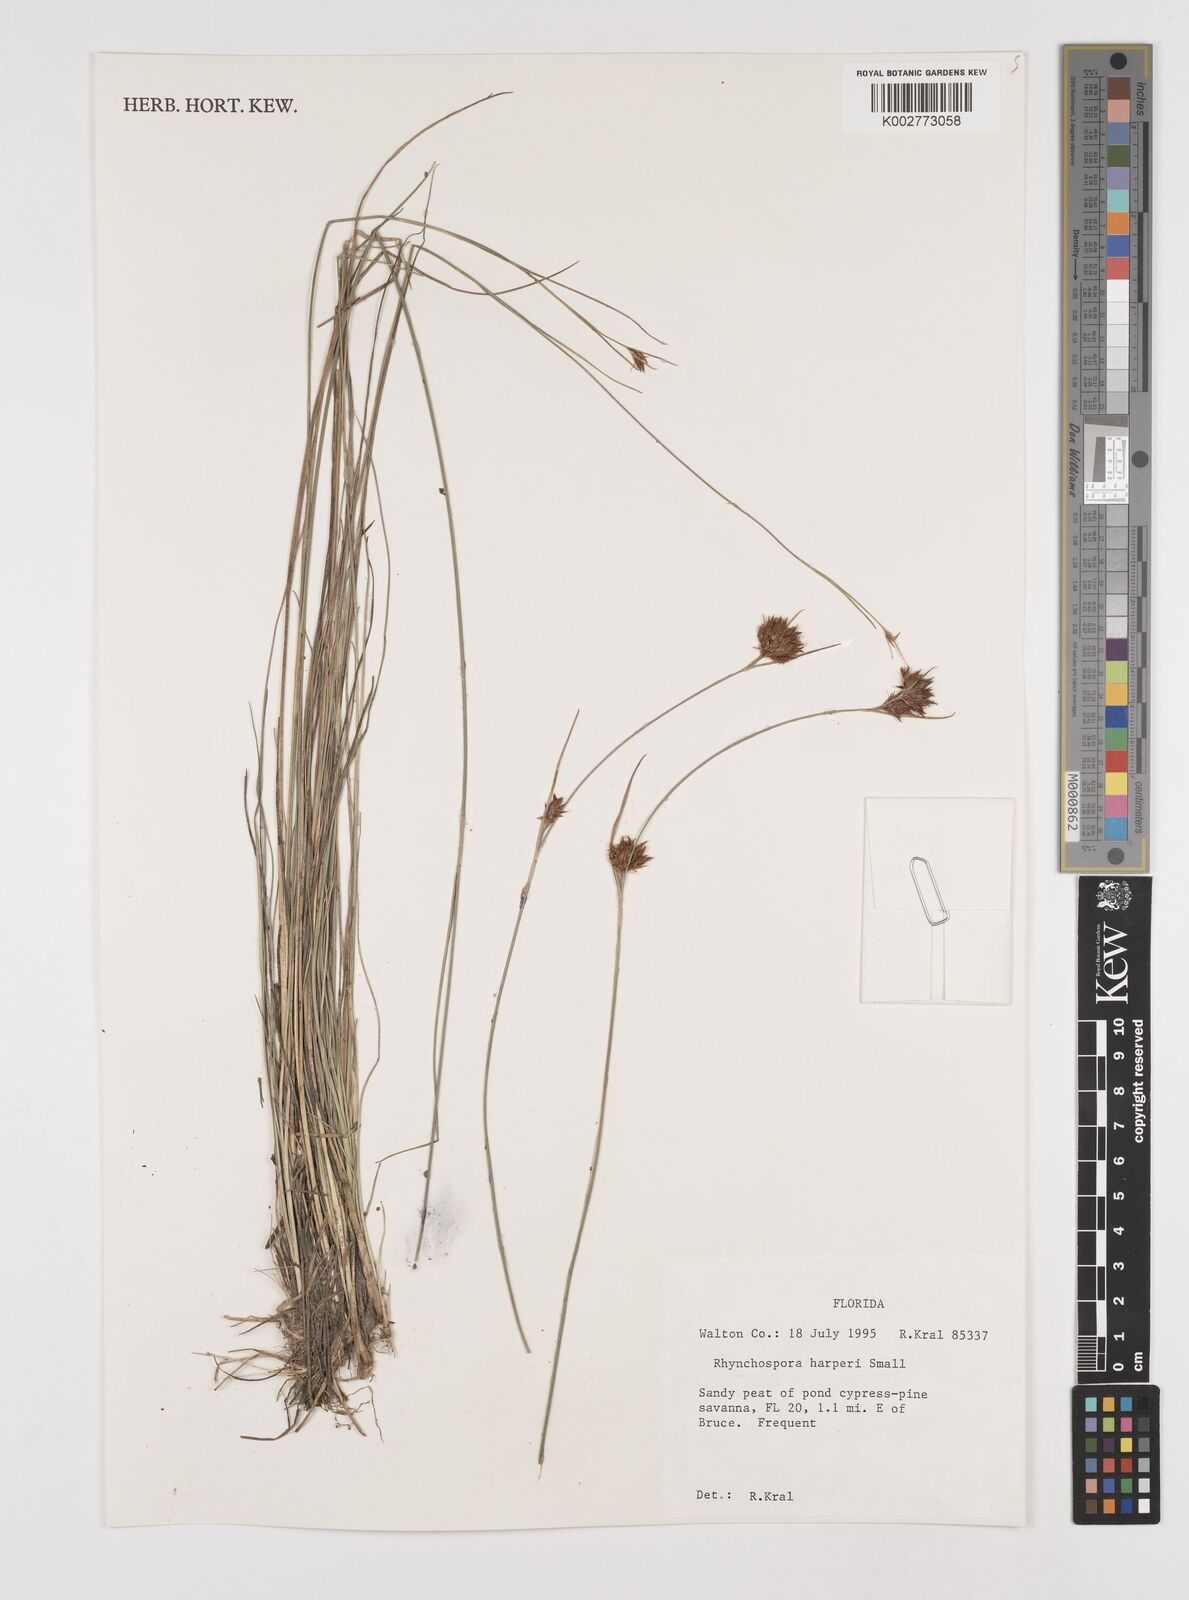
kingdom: Plantae
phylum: Tracheophyta
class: Liliopsida
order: Poales
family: Cyperaceae
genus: Rhynchospora
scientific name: Rhynchospora harperi
